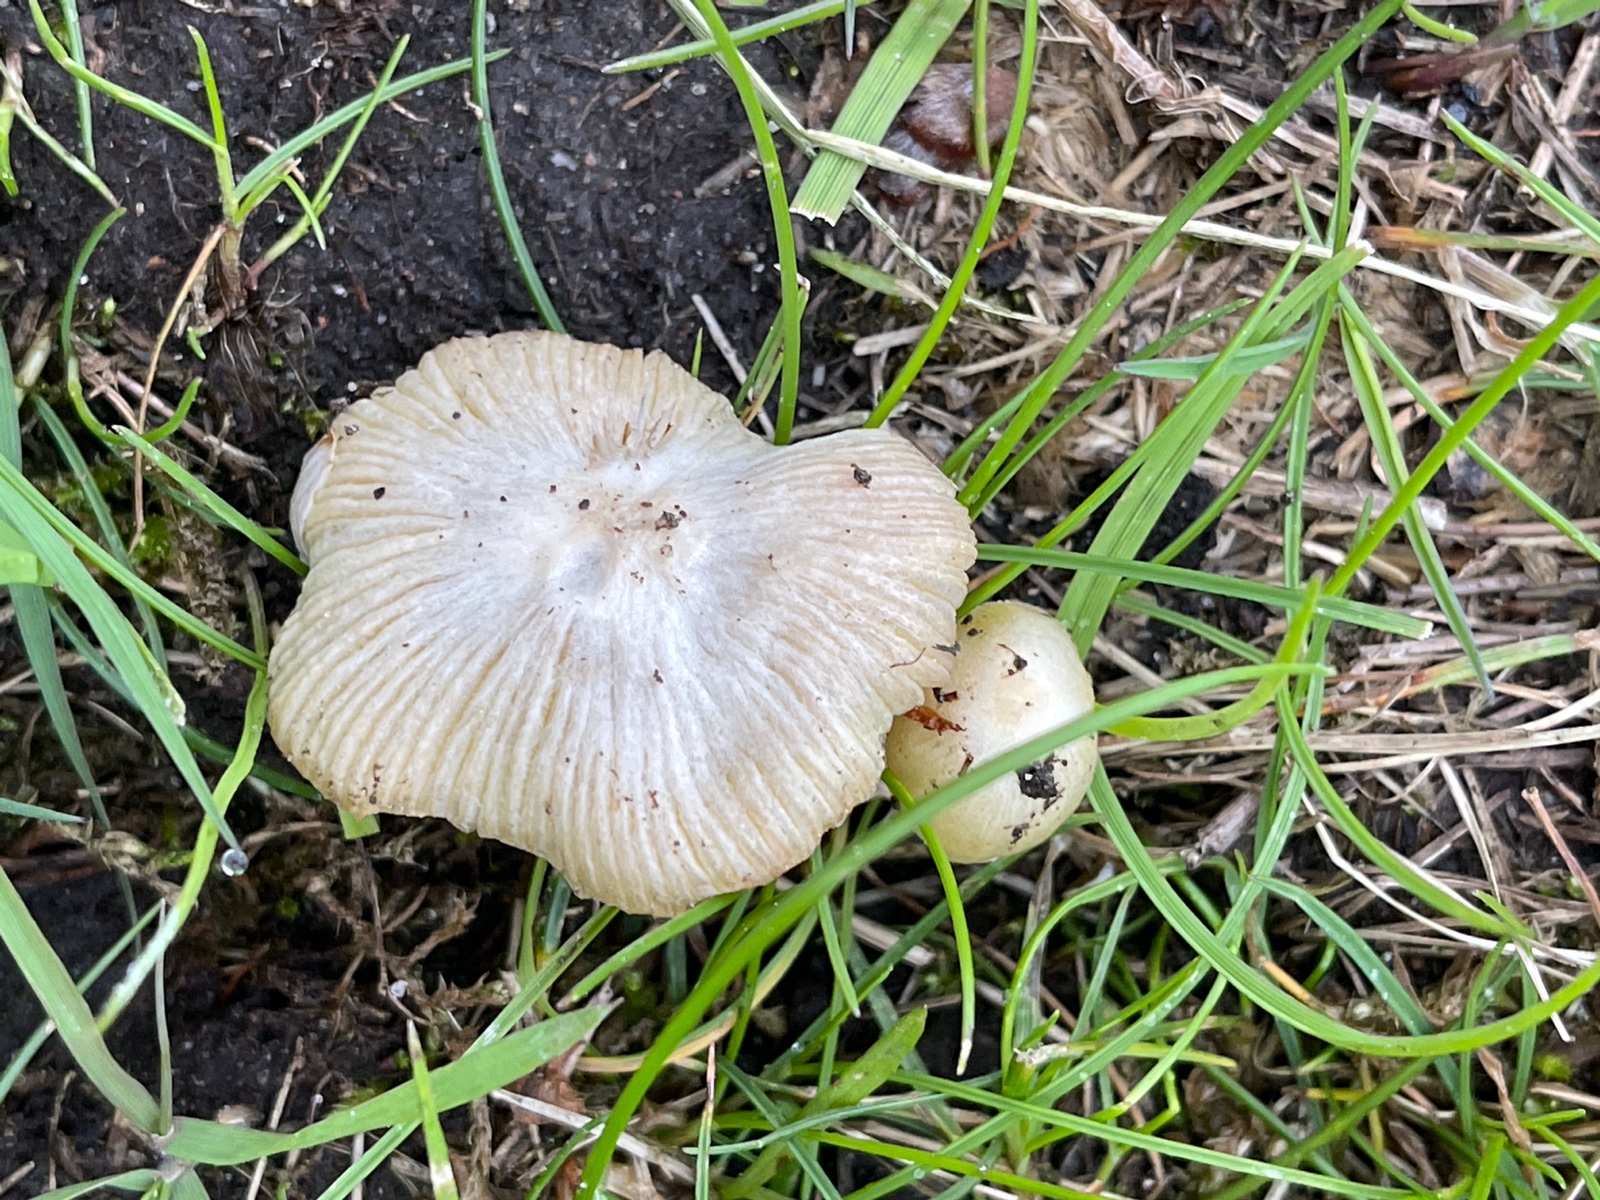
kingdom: Fungi
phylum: Basidiomycota
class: Agaricomycetes
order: Agaricales
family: Bolbitiaceae
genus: Bolbitius
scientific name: Bolbitius titubans
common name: almindelig gulhat
